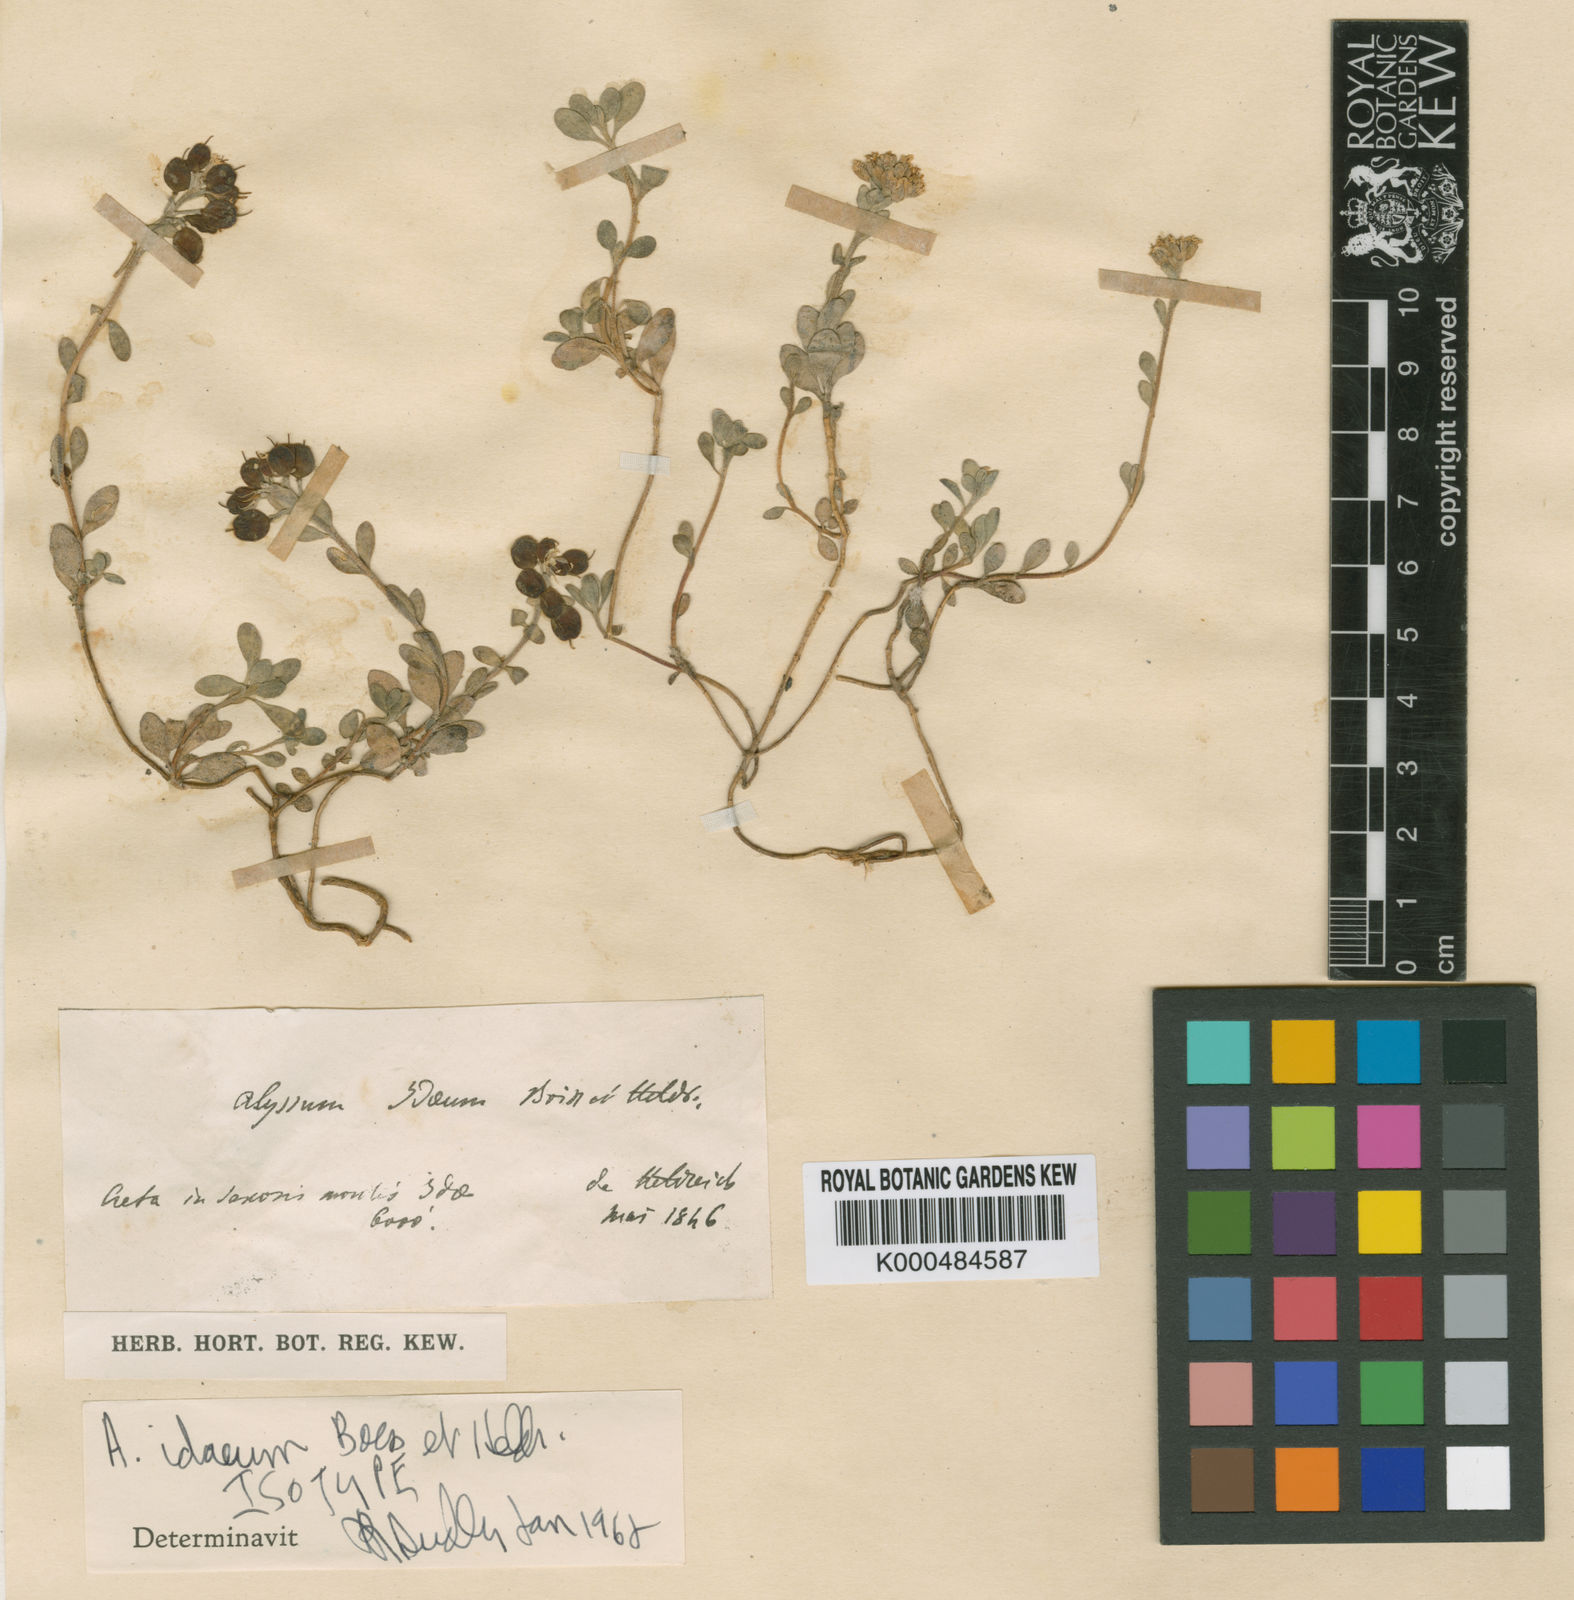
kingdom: Plantae
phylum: Tracheophyta
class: Magnoliopsida
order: Brassicales
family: Brassicaceae
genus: Alyssum
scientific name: Alyssum idaeum
